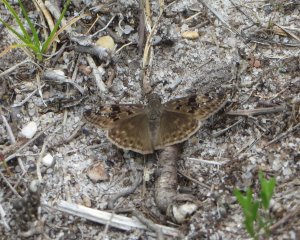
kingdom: Animalia
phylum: Arthropoda
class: Insecta
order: Lepidoptera
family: Hesperiidae
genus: Gesta
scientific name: Gesta
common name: Horace's Duskywing
